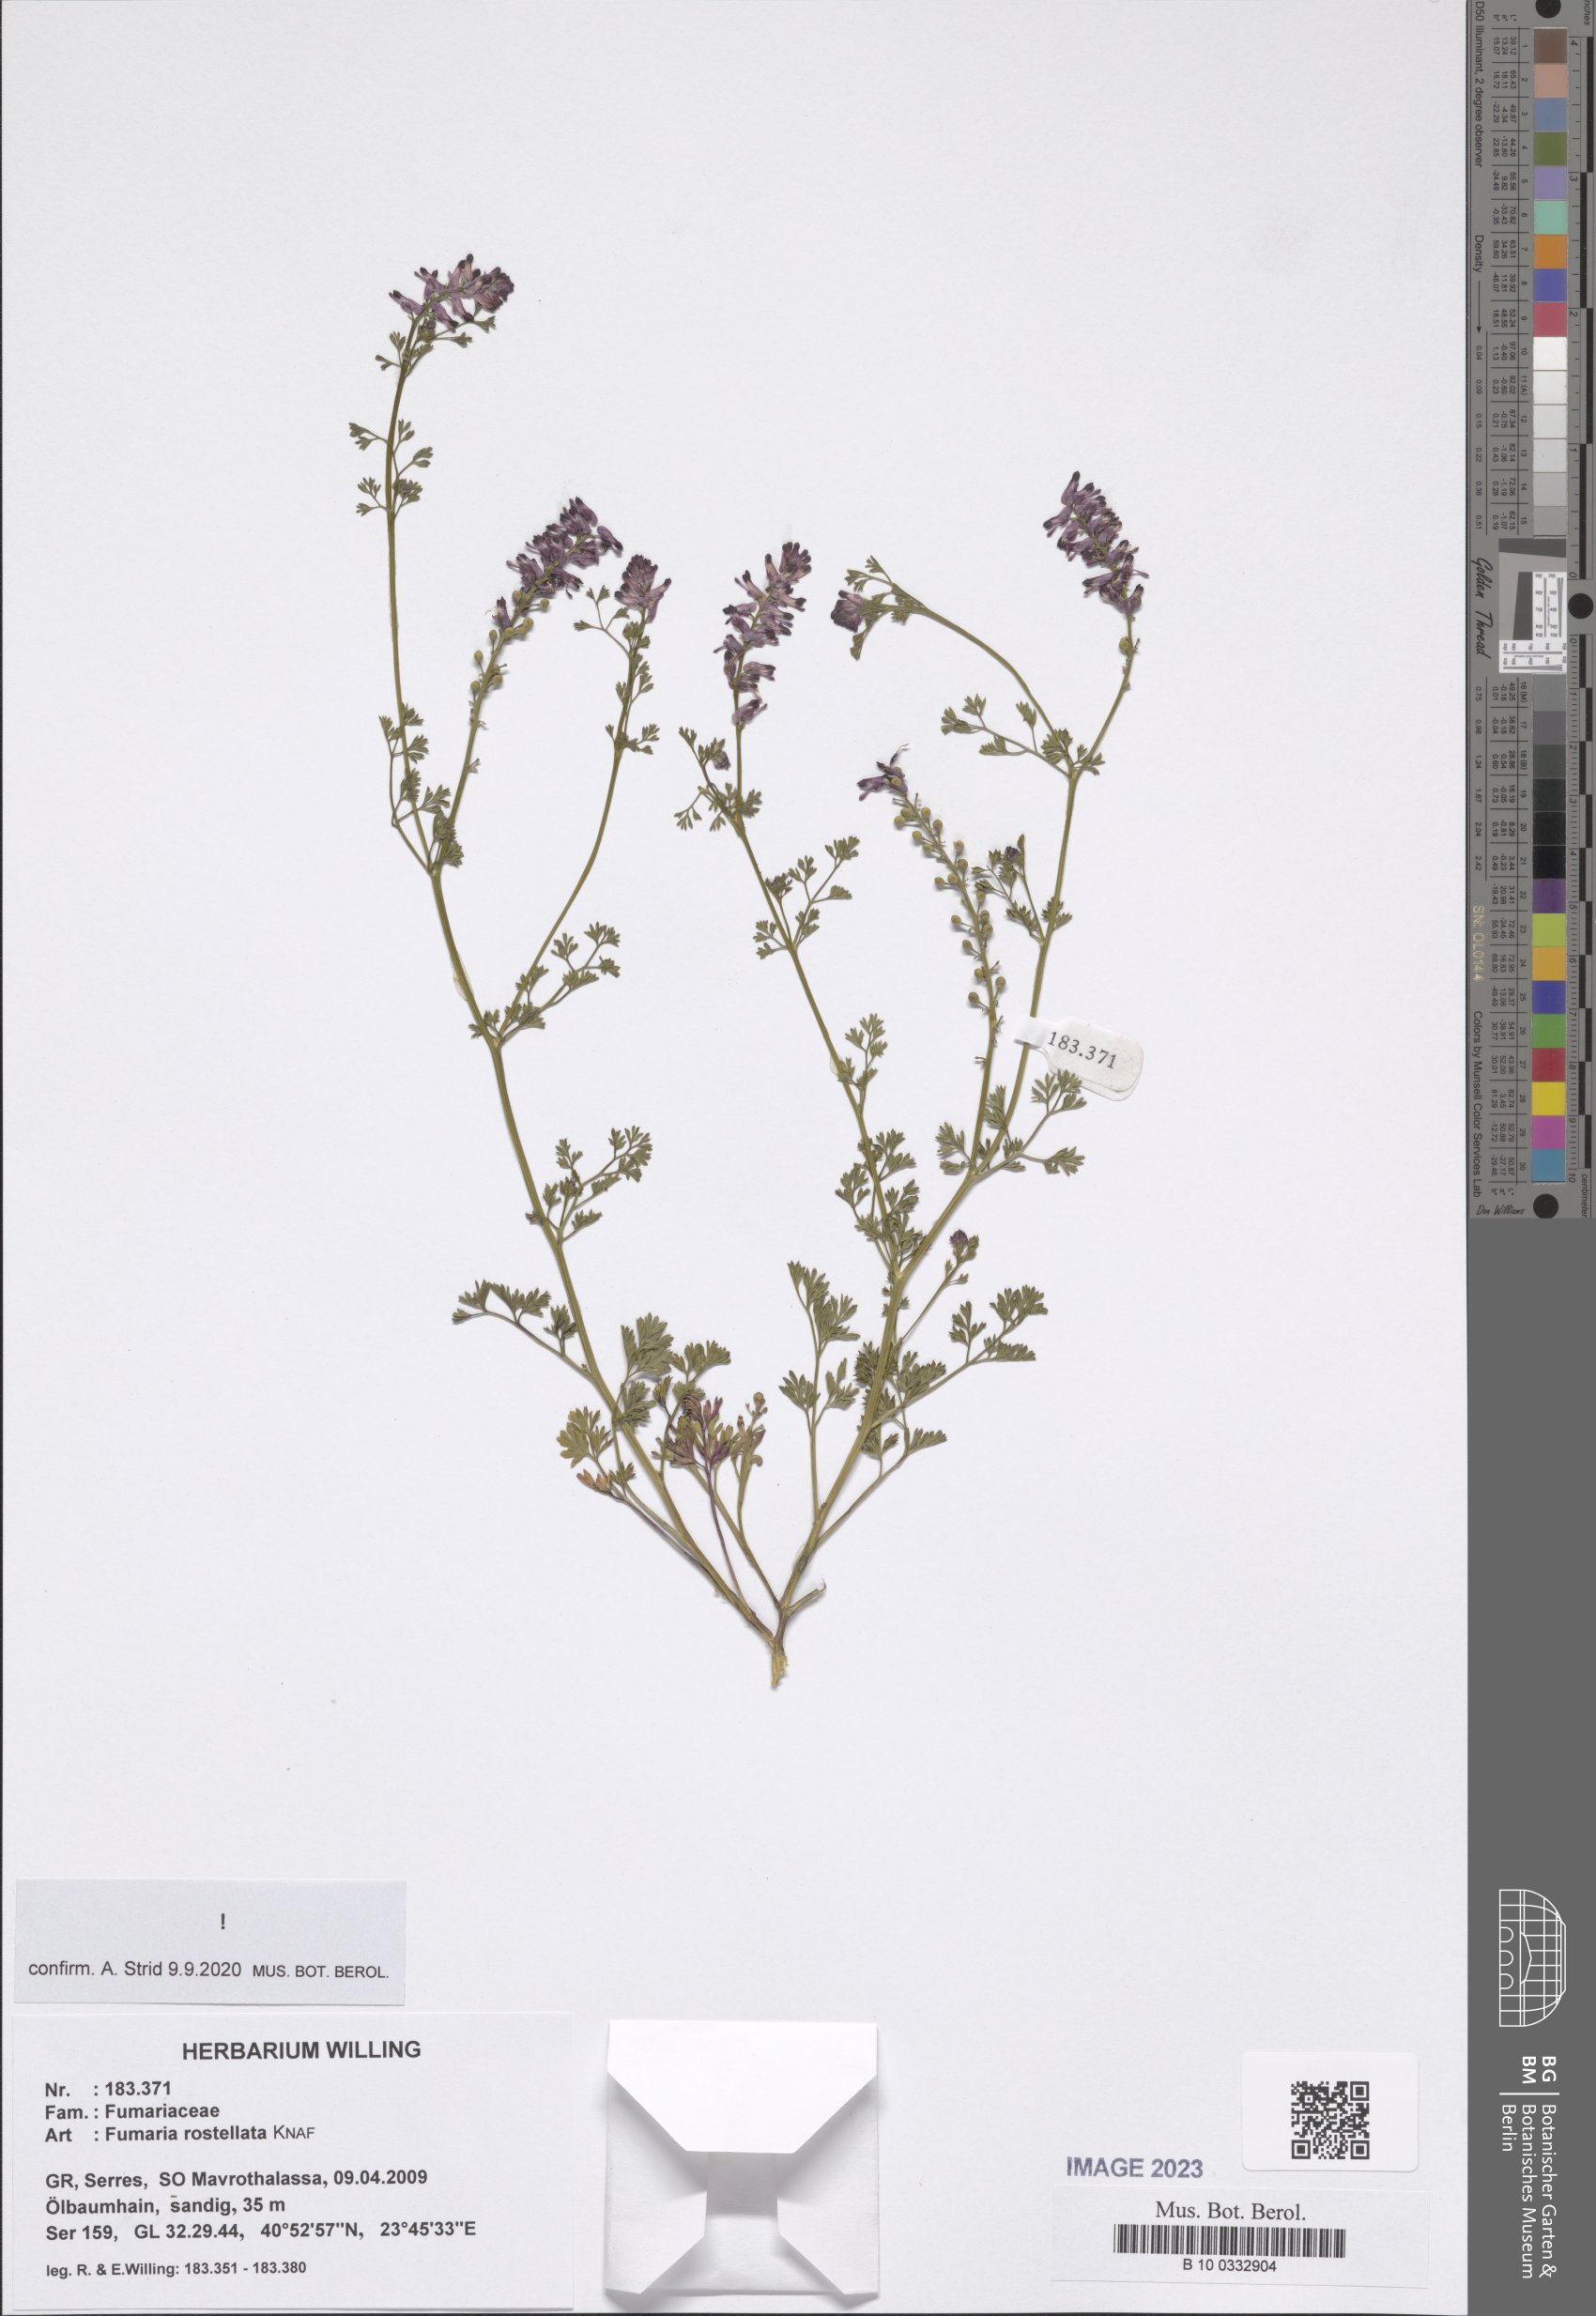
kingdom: Plantae
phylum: Tracheophyta
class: Magnoliopsida
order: Ranunculales
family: Papaveraceae
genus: Fumaria
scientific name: Fumaria rostellata
